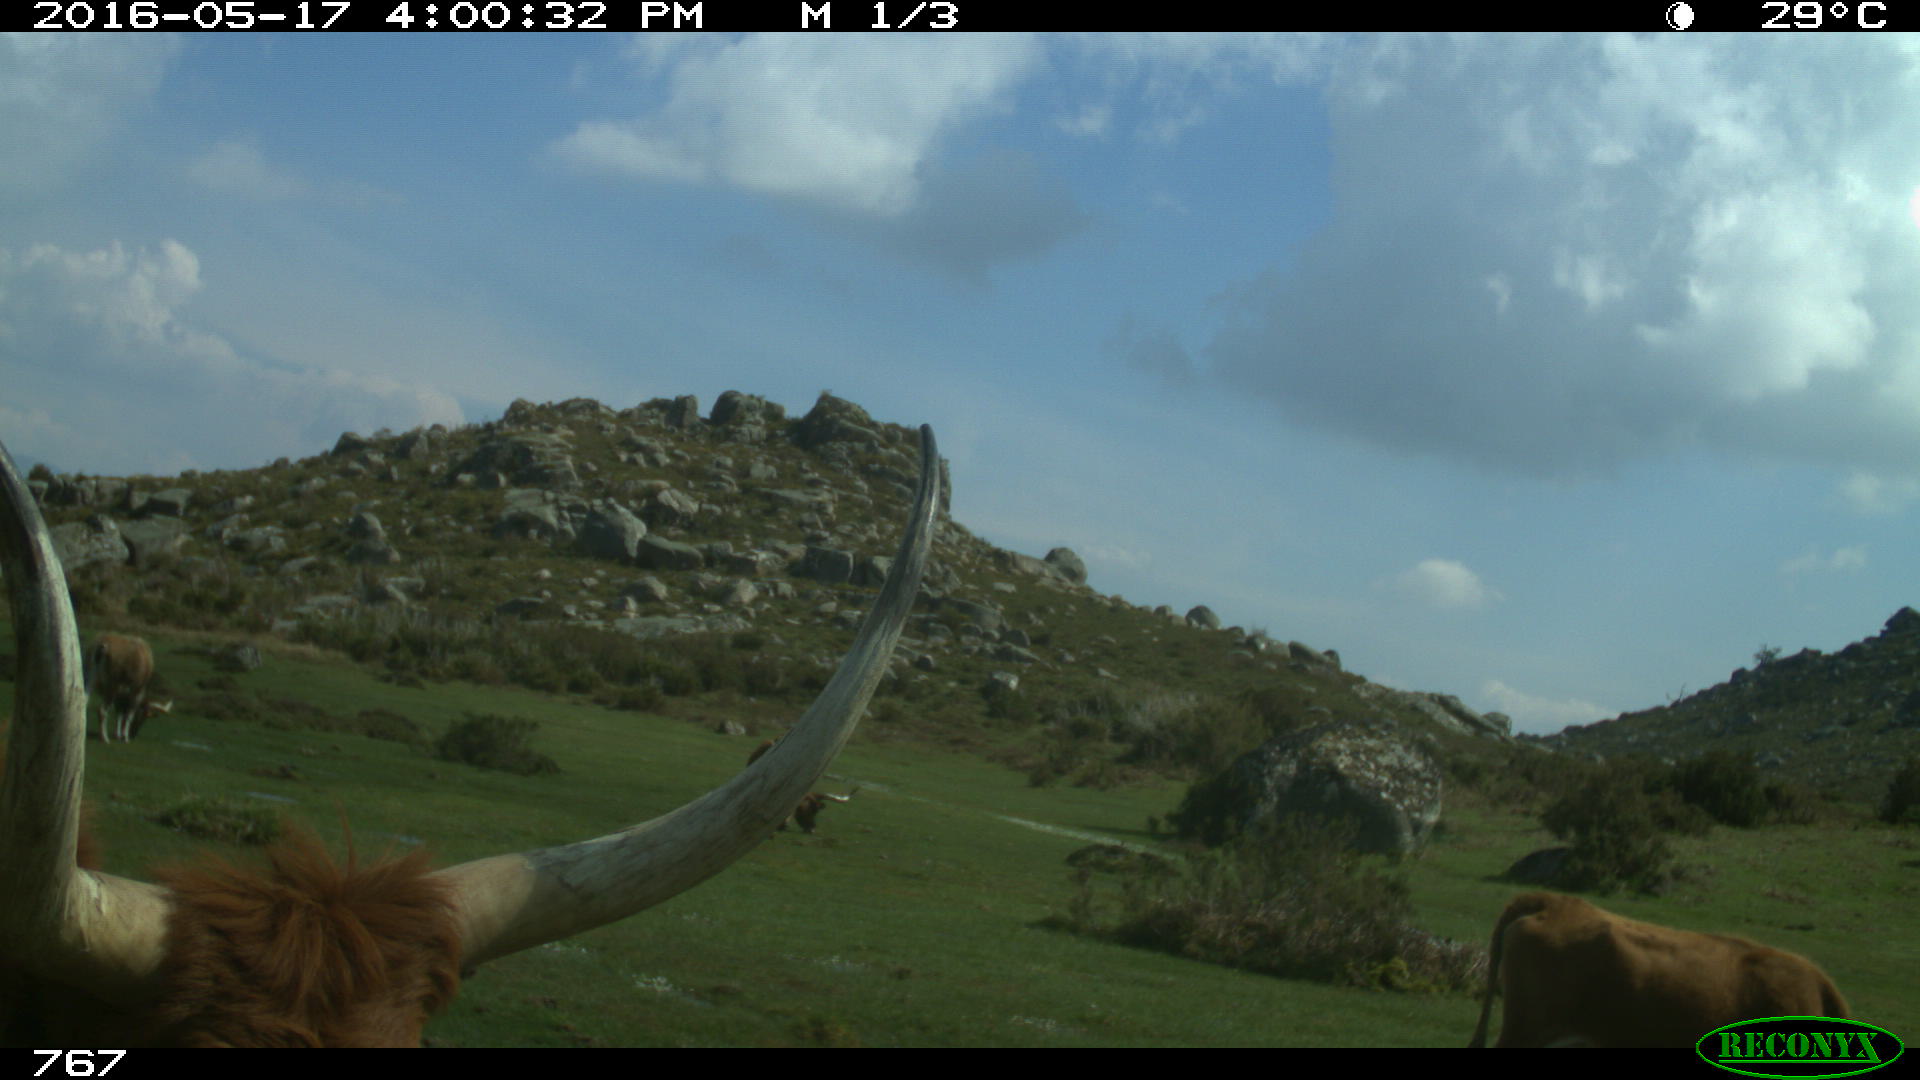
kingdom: Animalia
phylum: Chordata
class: Mammalia
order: Perissodactyla
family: Equidae
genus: Equus
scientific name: Equus caballus
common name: Horse
